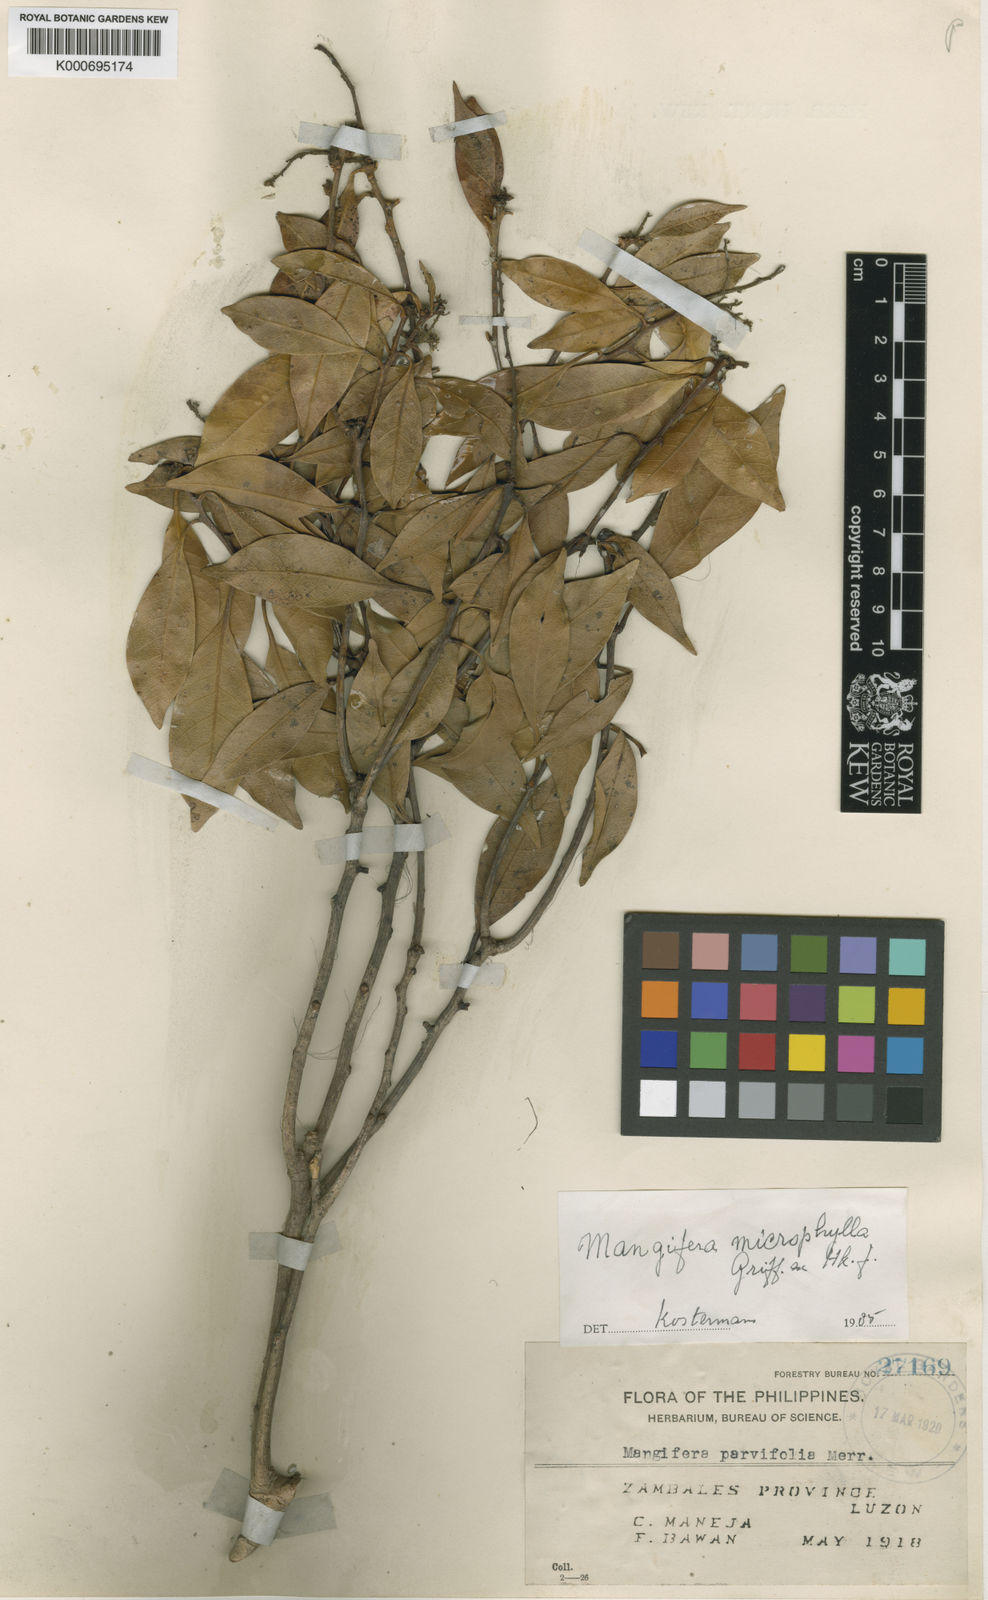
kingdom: Plantae
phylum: Tracheophyta
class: Magnoliopsida
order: Sapindales
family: Anacardiaceae
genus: Mangifera
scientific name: Mangifera altissima
